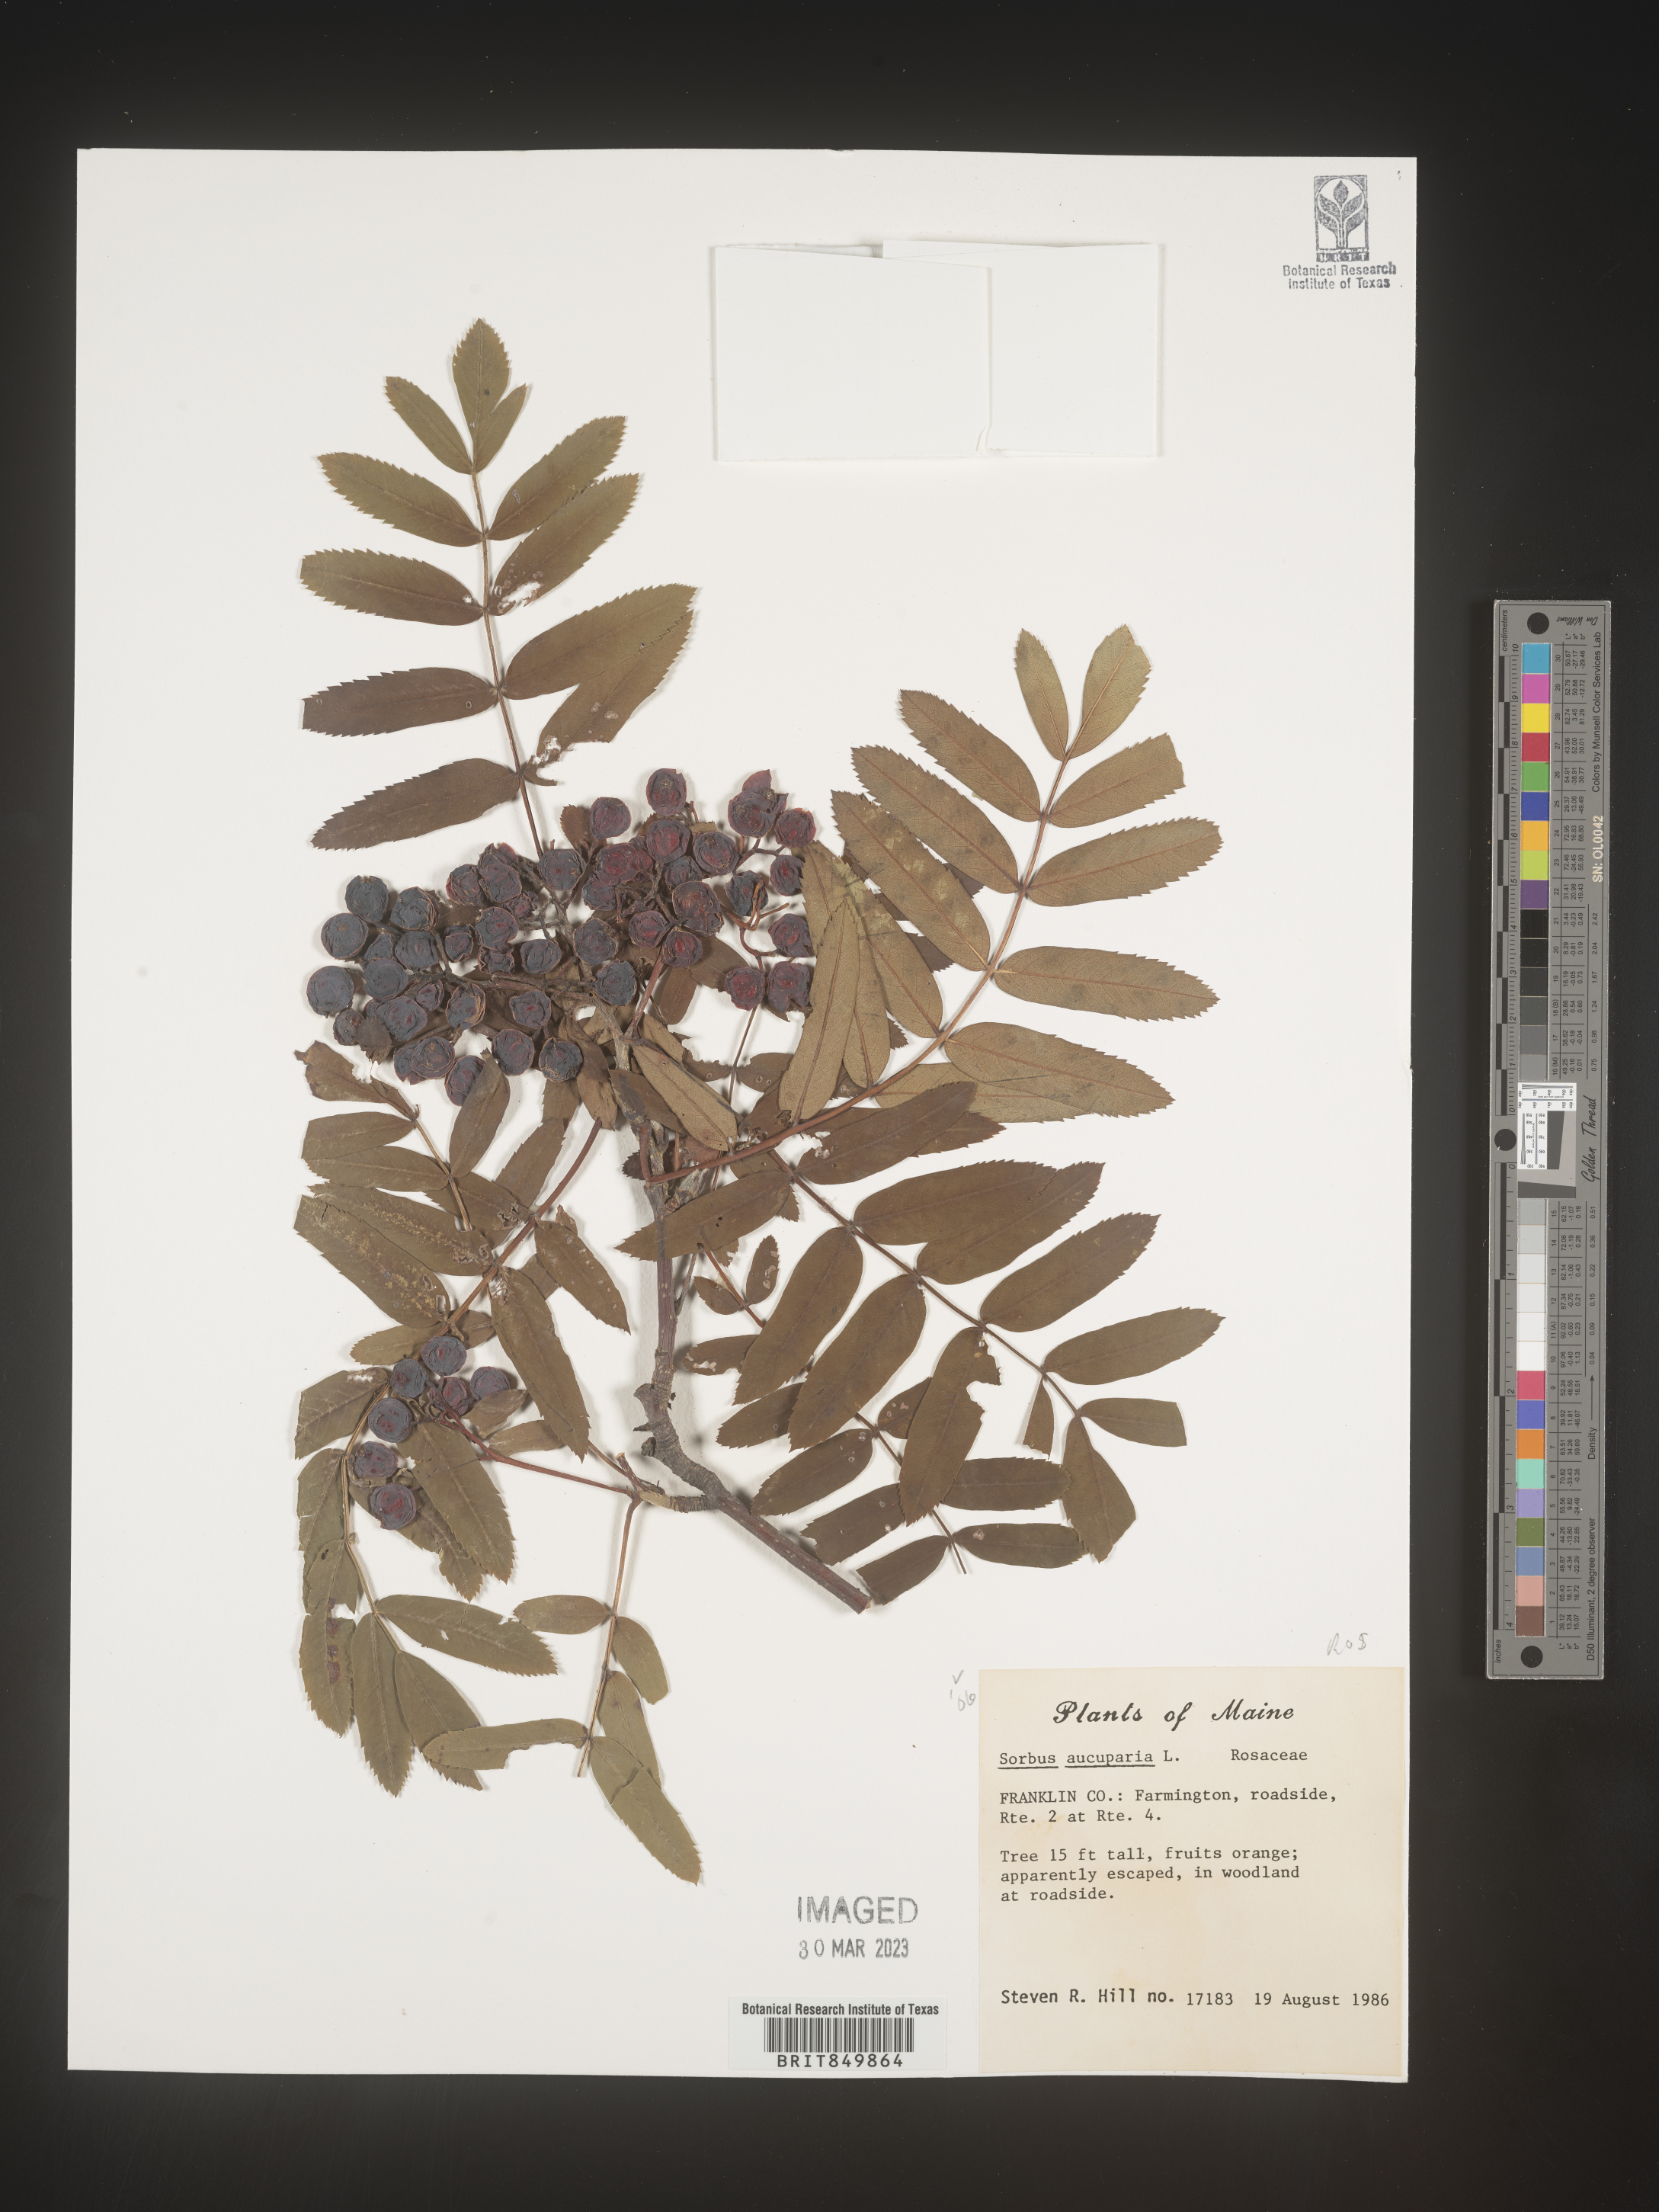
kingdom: Plantae
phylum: Tracheophyta
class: Magnoliopsida
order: Rosales
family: Rosaceae
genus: Sorbus
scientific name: Sorbus
